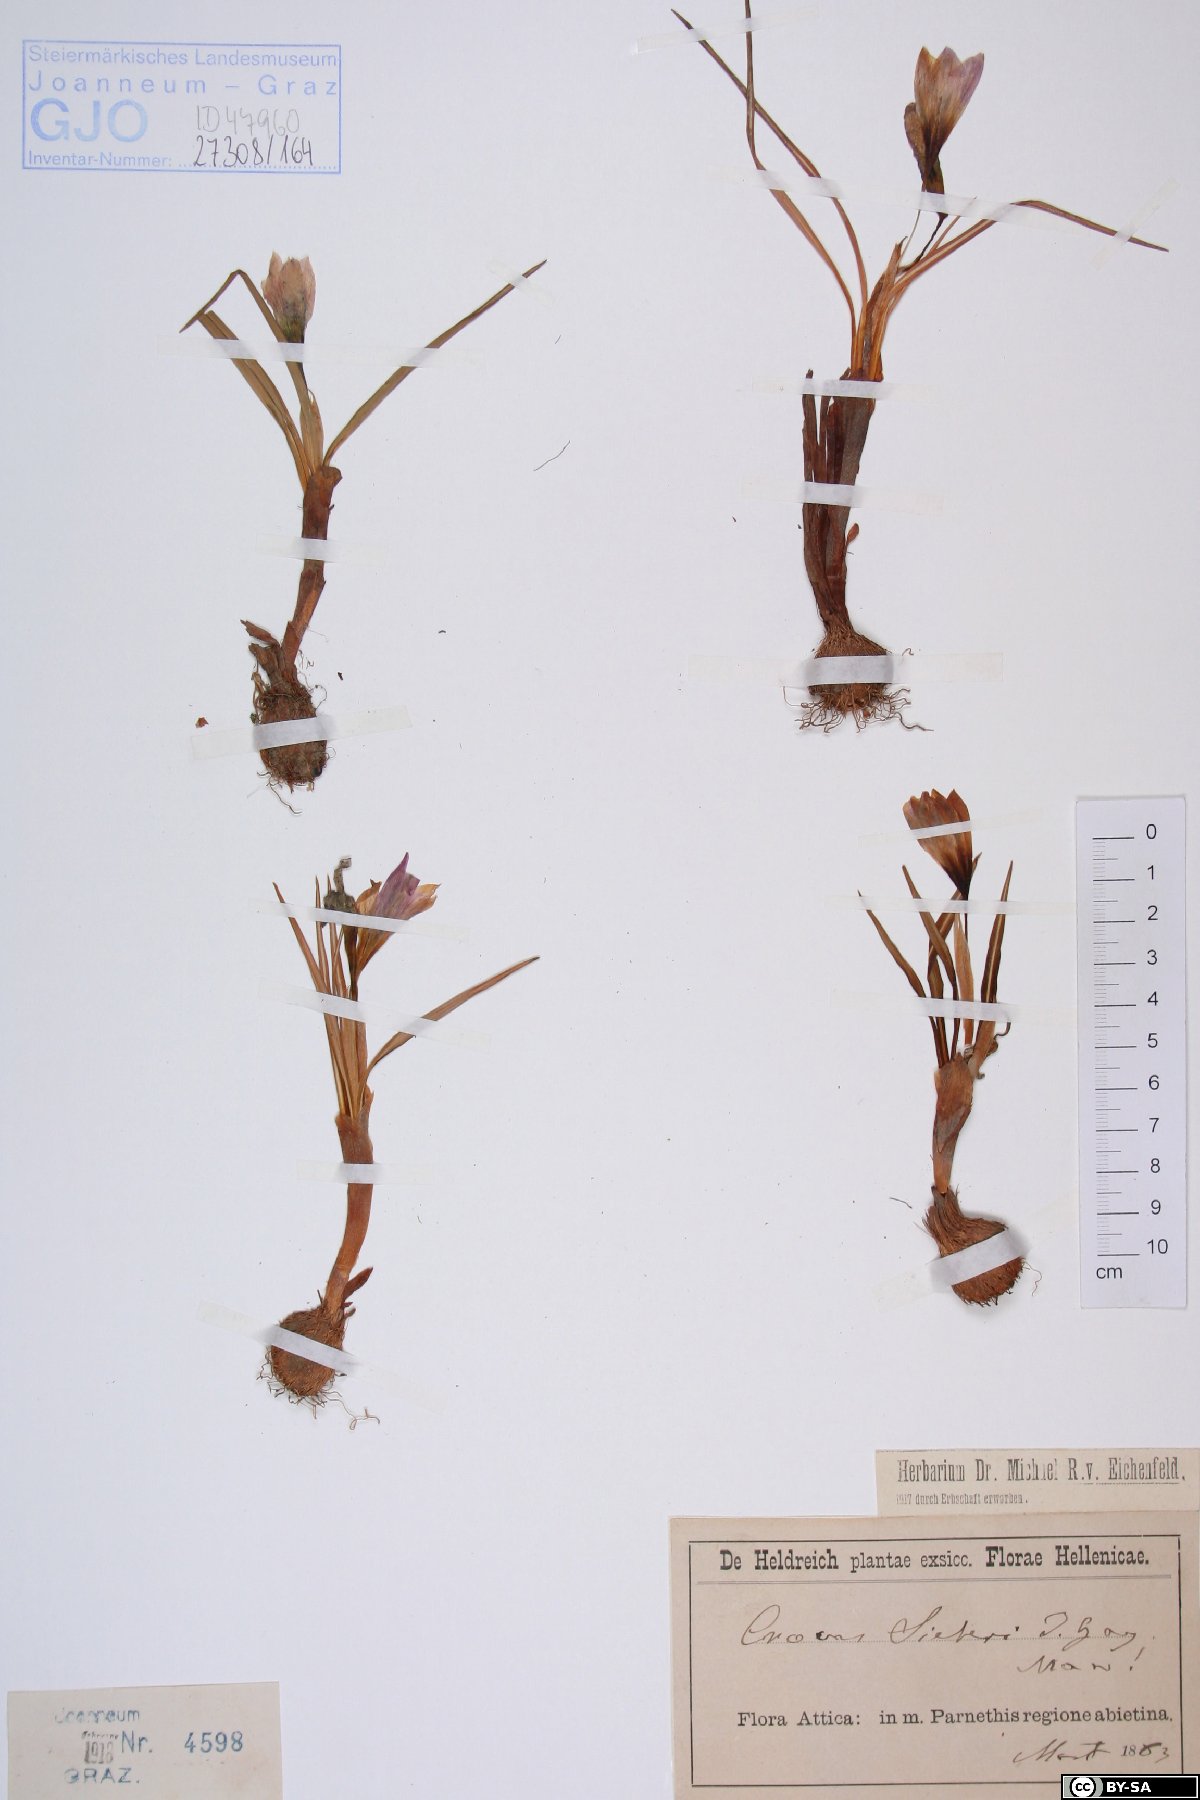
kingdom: Plantae
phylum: Tracheophyta
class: Liliopsida
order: Asparagales
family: Iridaceae
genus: Crocus
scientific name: Crocus sieberi
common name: Sieber's crocus
